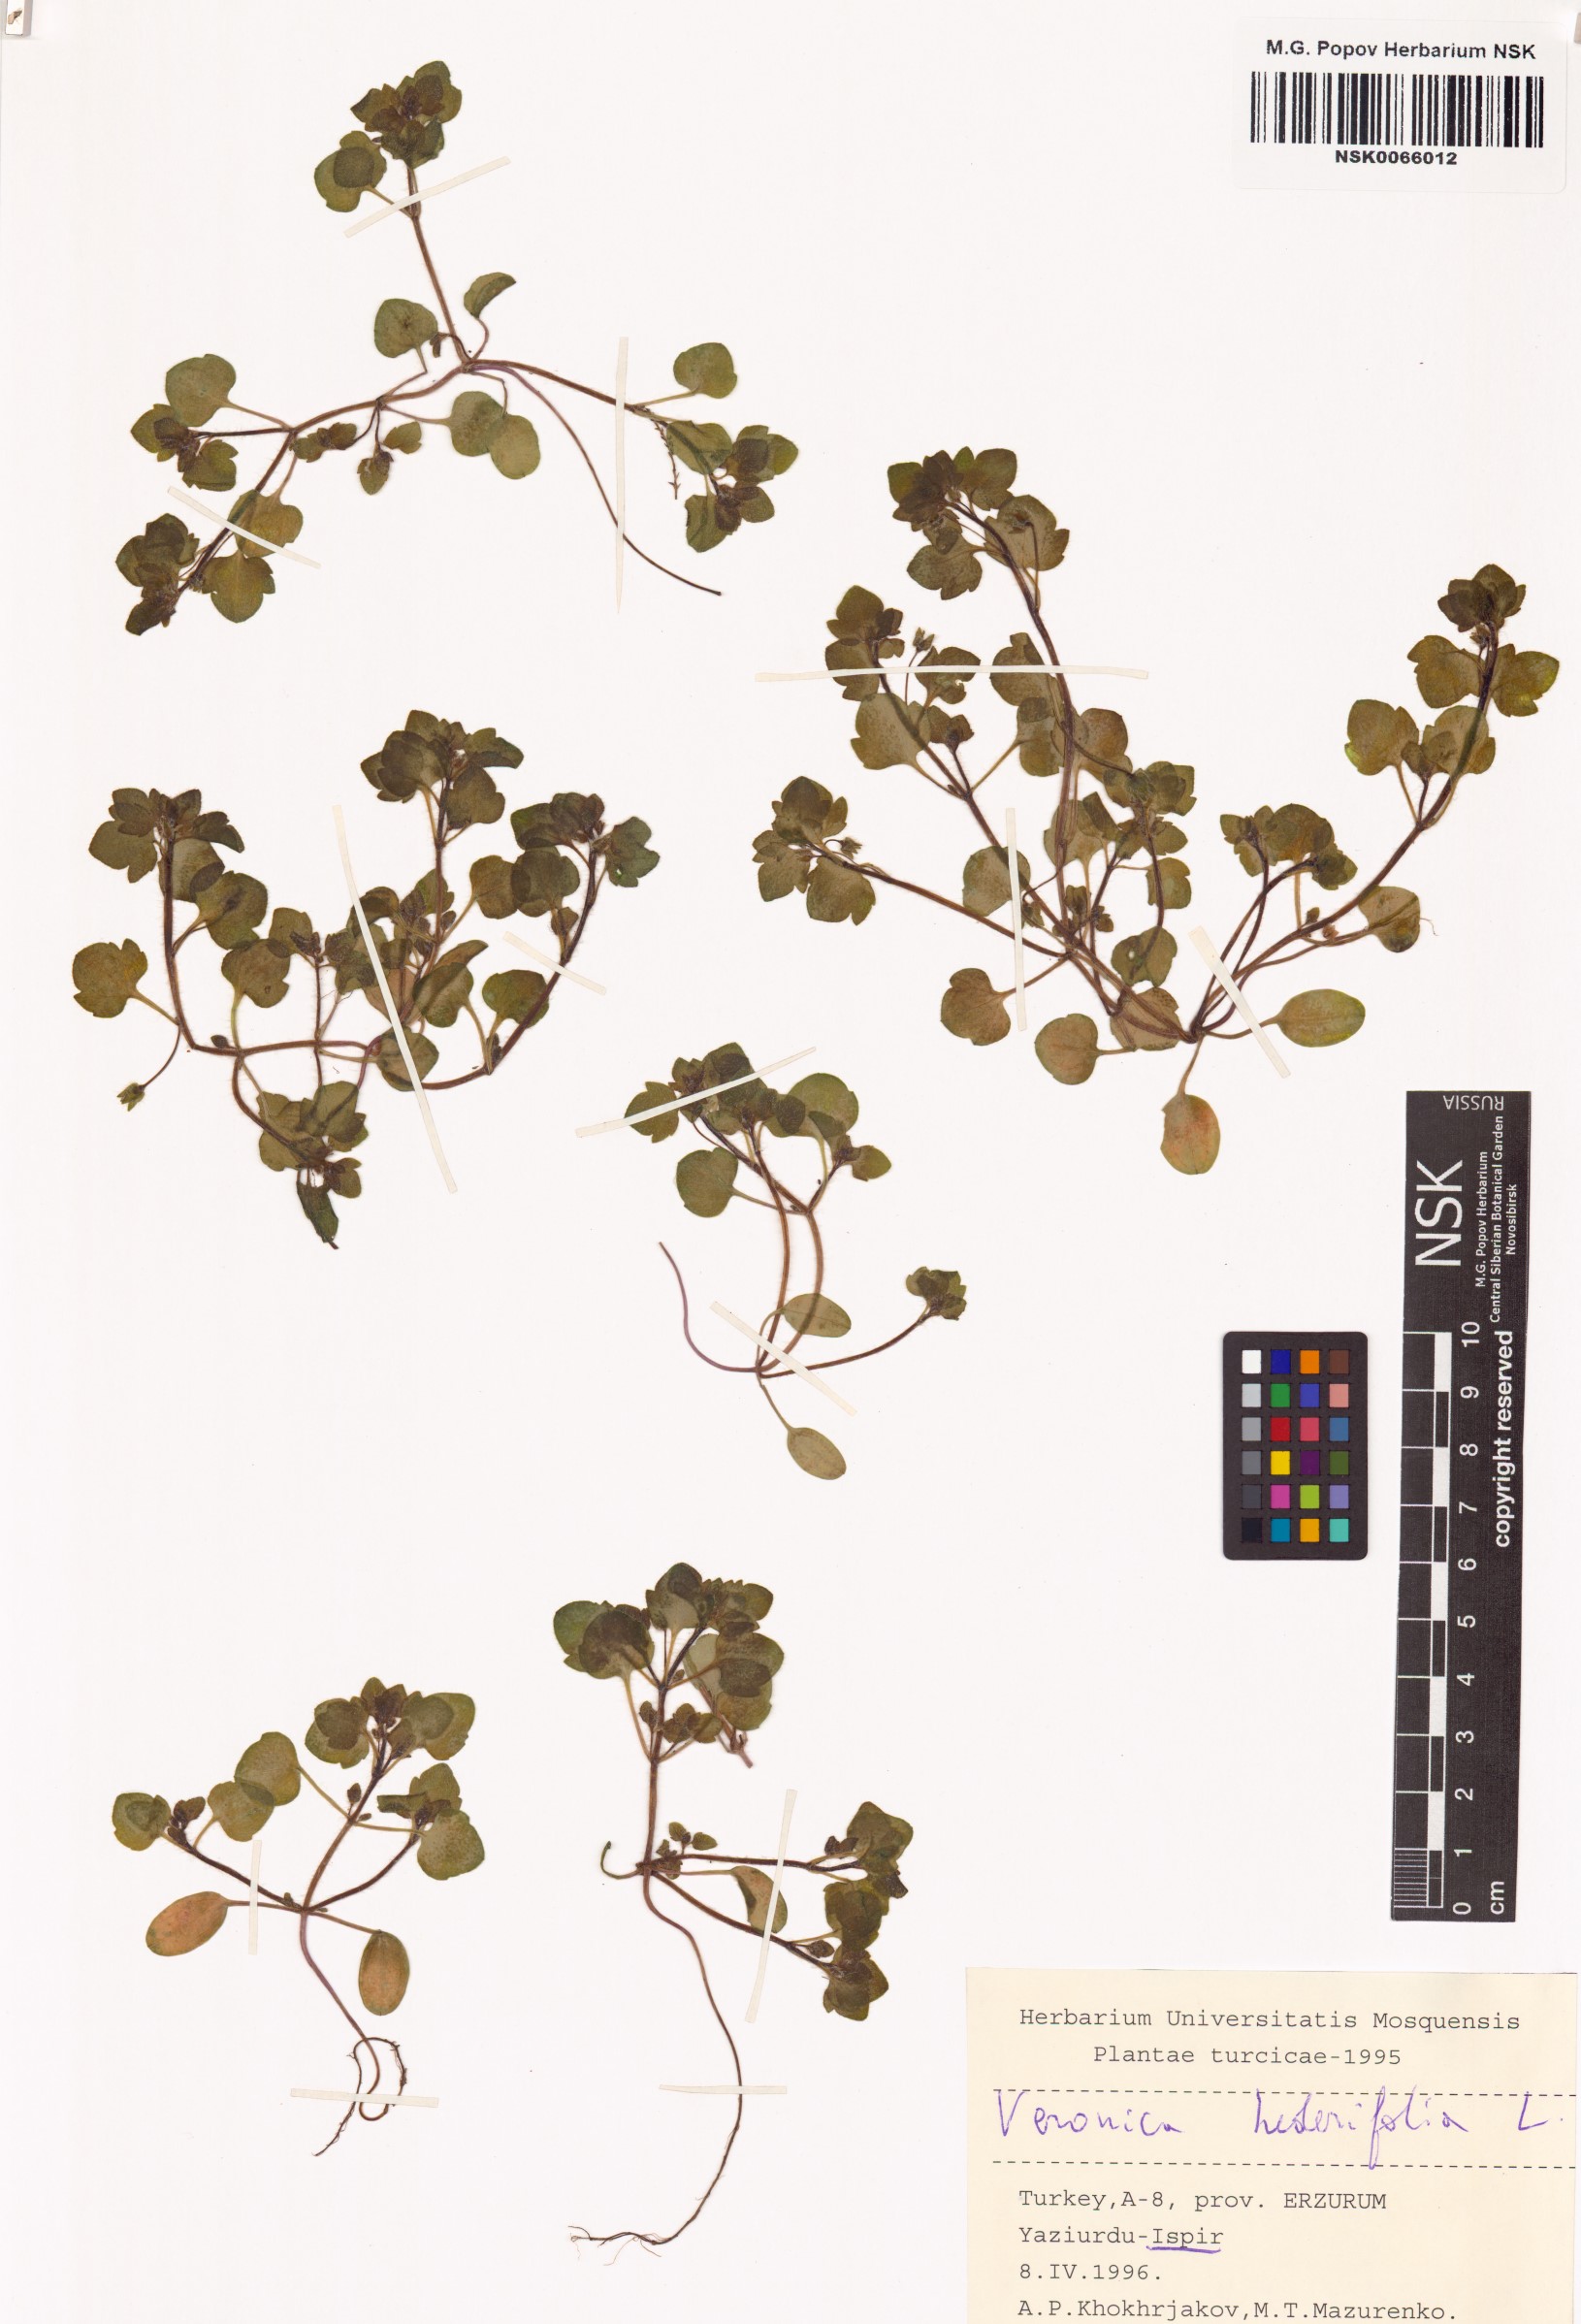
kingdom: Plantae
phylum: Tracheophyta
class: Magnoliopsida
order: Lamiales
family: Plantaginaceae
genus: Veronica
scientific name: Veronica hederifolia
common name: Ivy-leaved speedwell
